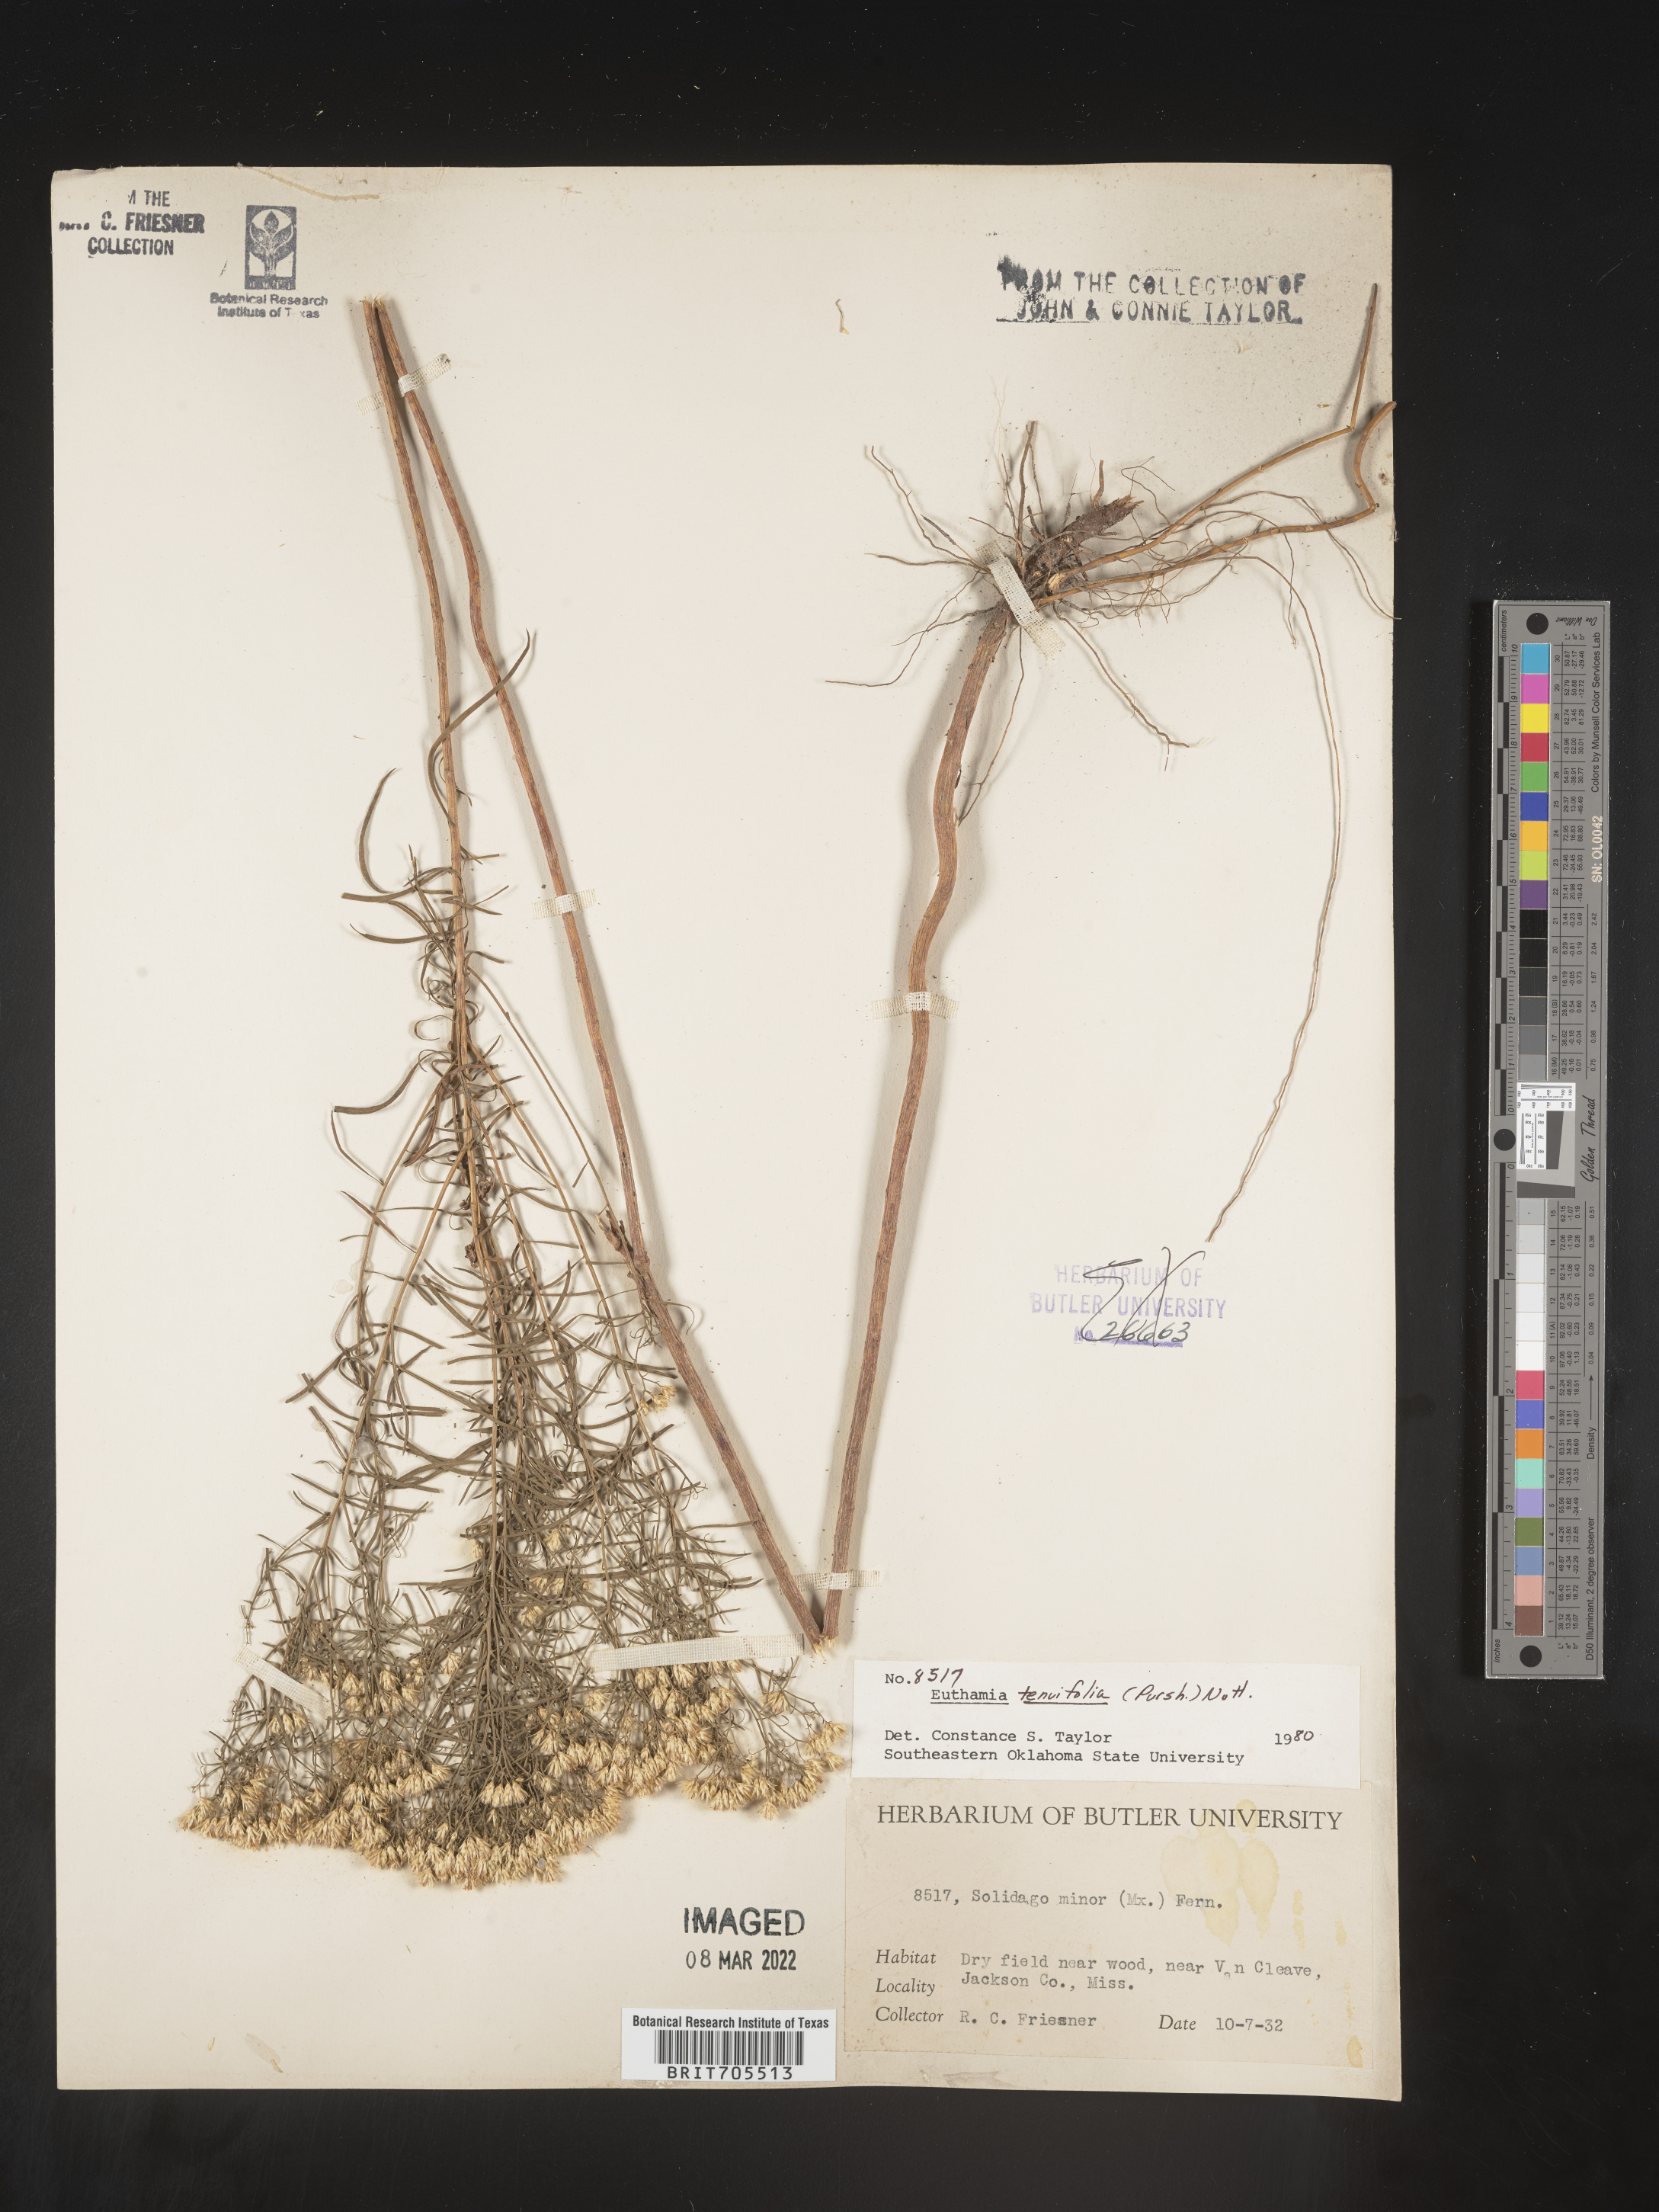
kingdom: Plantae
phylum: Tracheophyta
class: Magnoliopsida
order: Asterales
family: Asteraceae
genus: Euthamia
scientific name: Euthamia caroliniana
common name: Coastal plain goldentop
